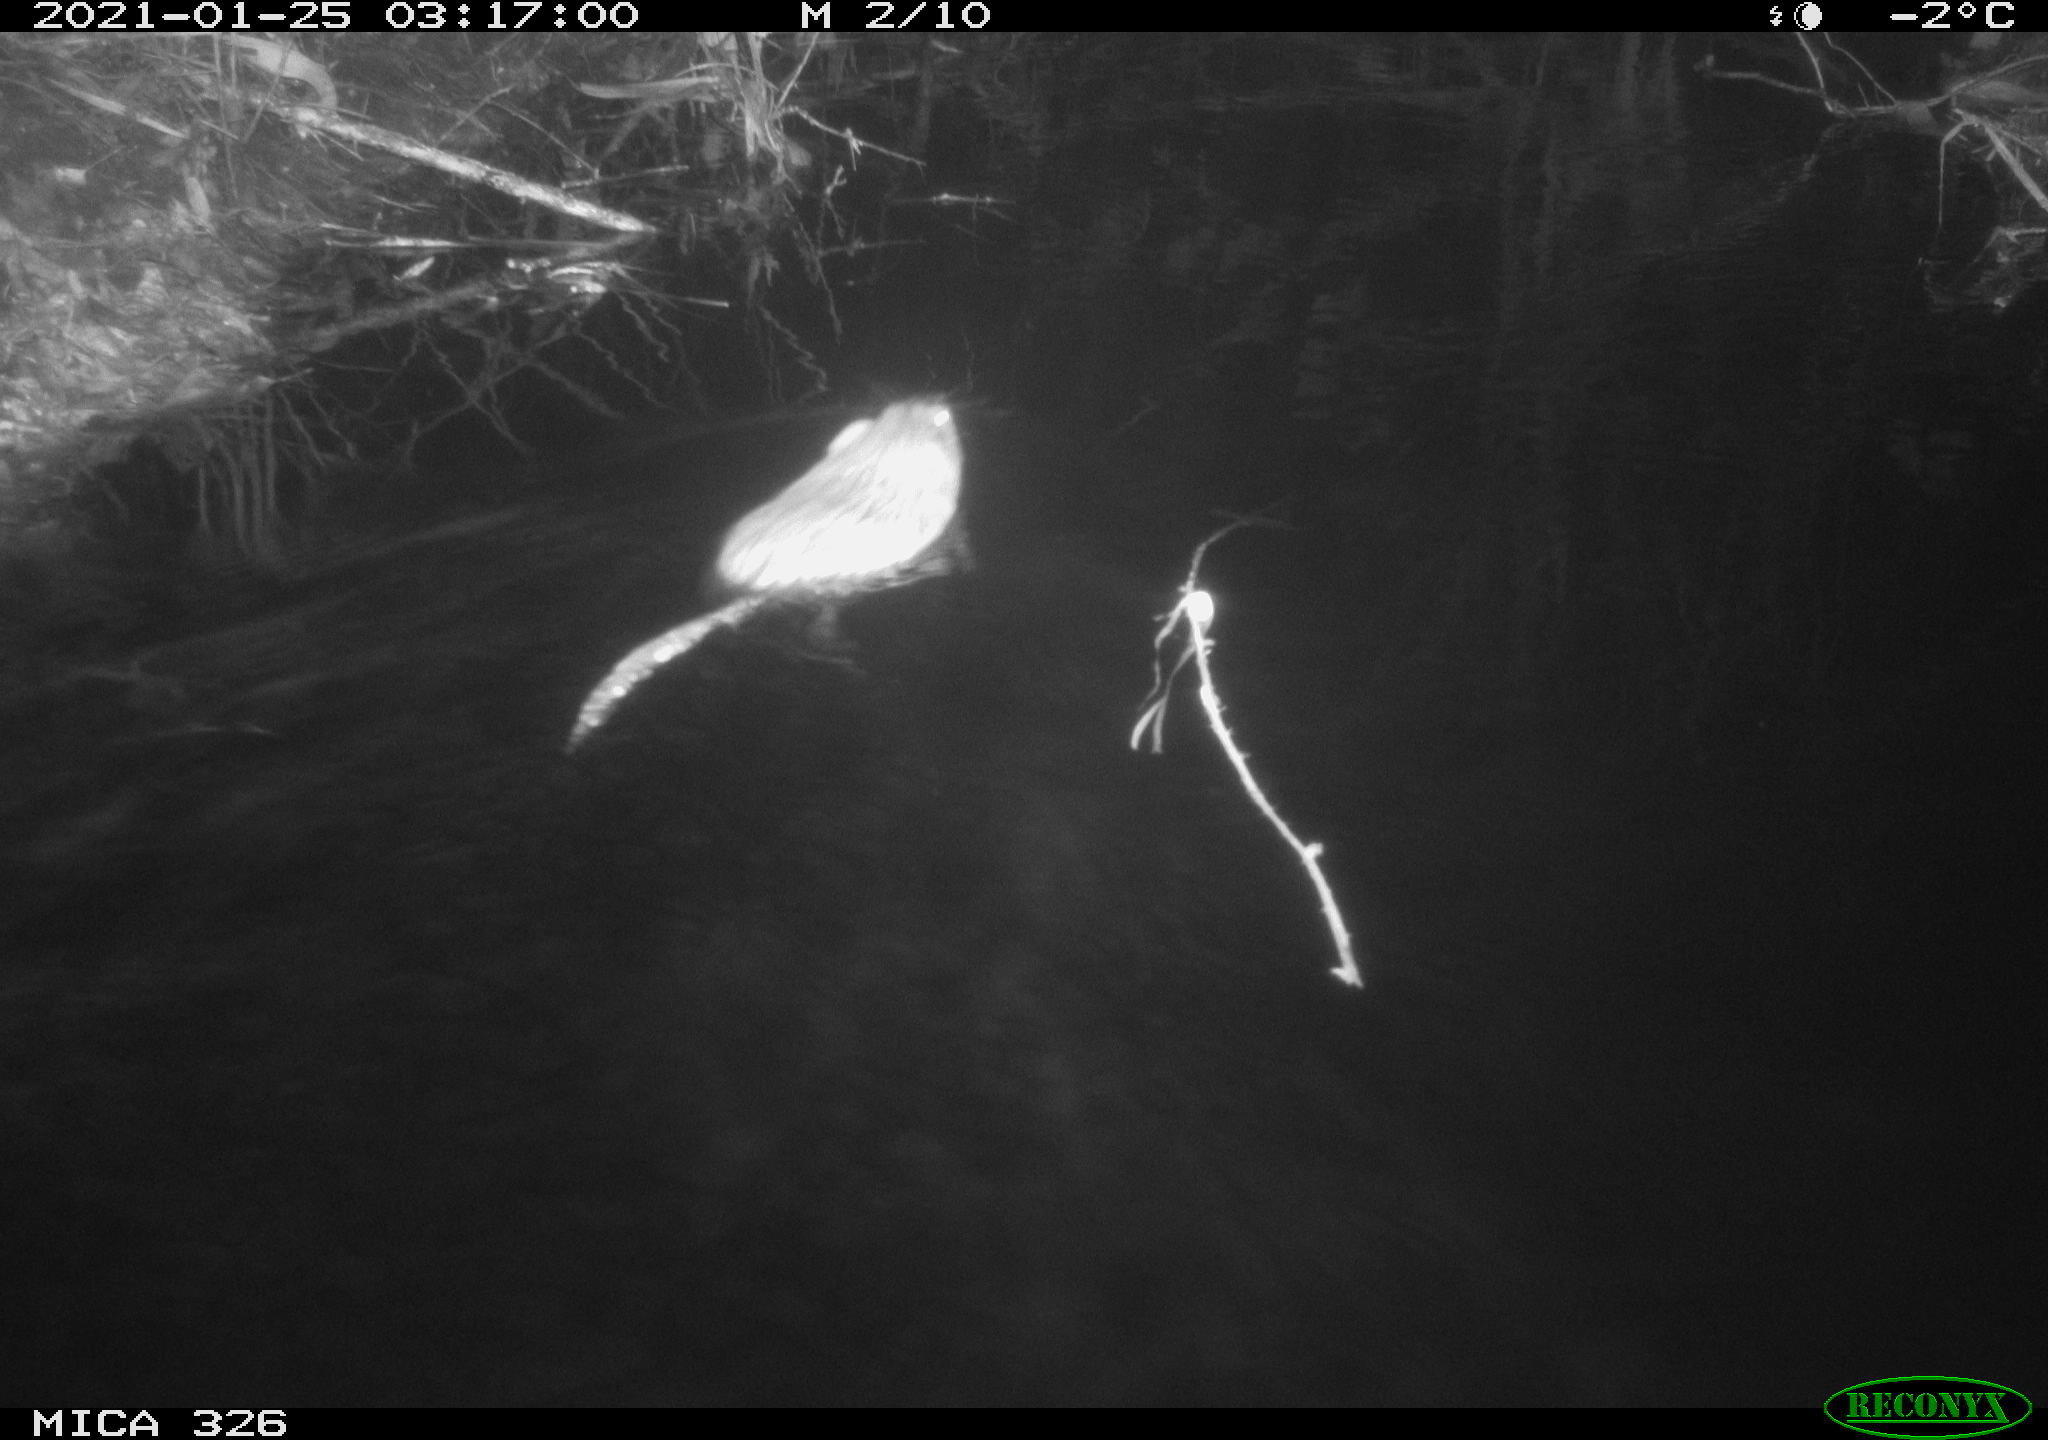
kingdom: Animalia
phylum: Chordata
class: Mammalia
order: Rodentia
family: Cricetidae
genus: Ondatra
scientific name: Ondatra zibethicus
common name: Muskrat
